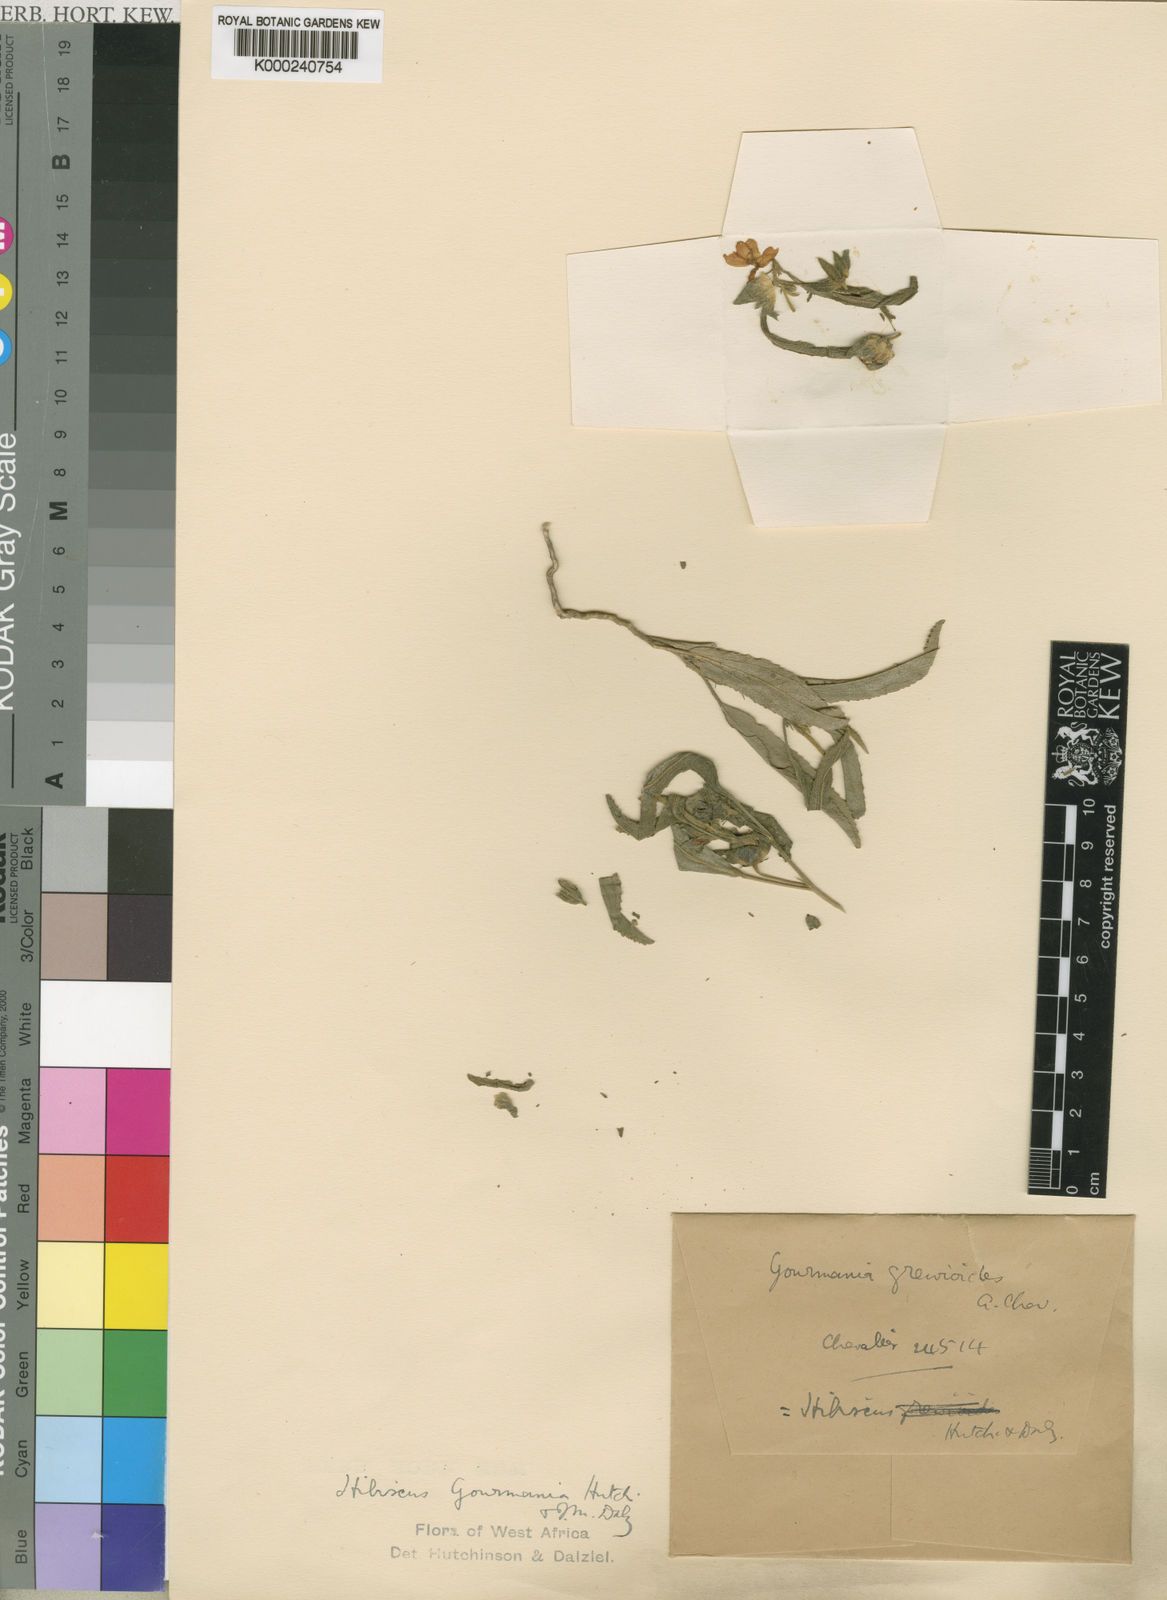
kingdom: Plantae
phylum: Tracheophyta
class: Magnoliopsida
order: Malvales
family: Malvaceae
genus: Hibiscus
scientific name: Hibiscus gourmania
